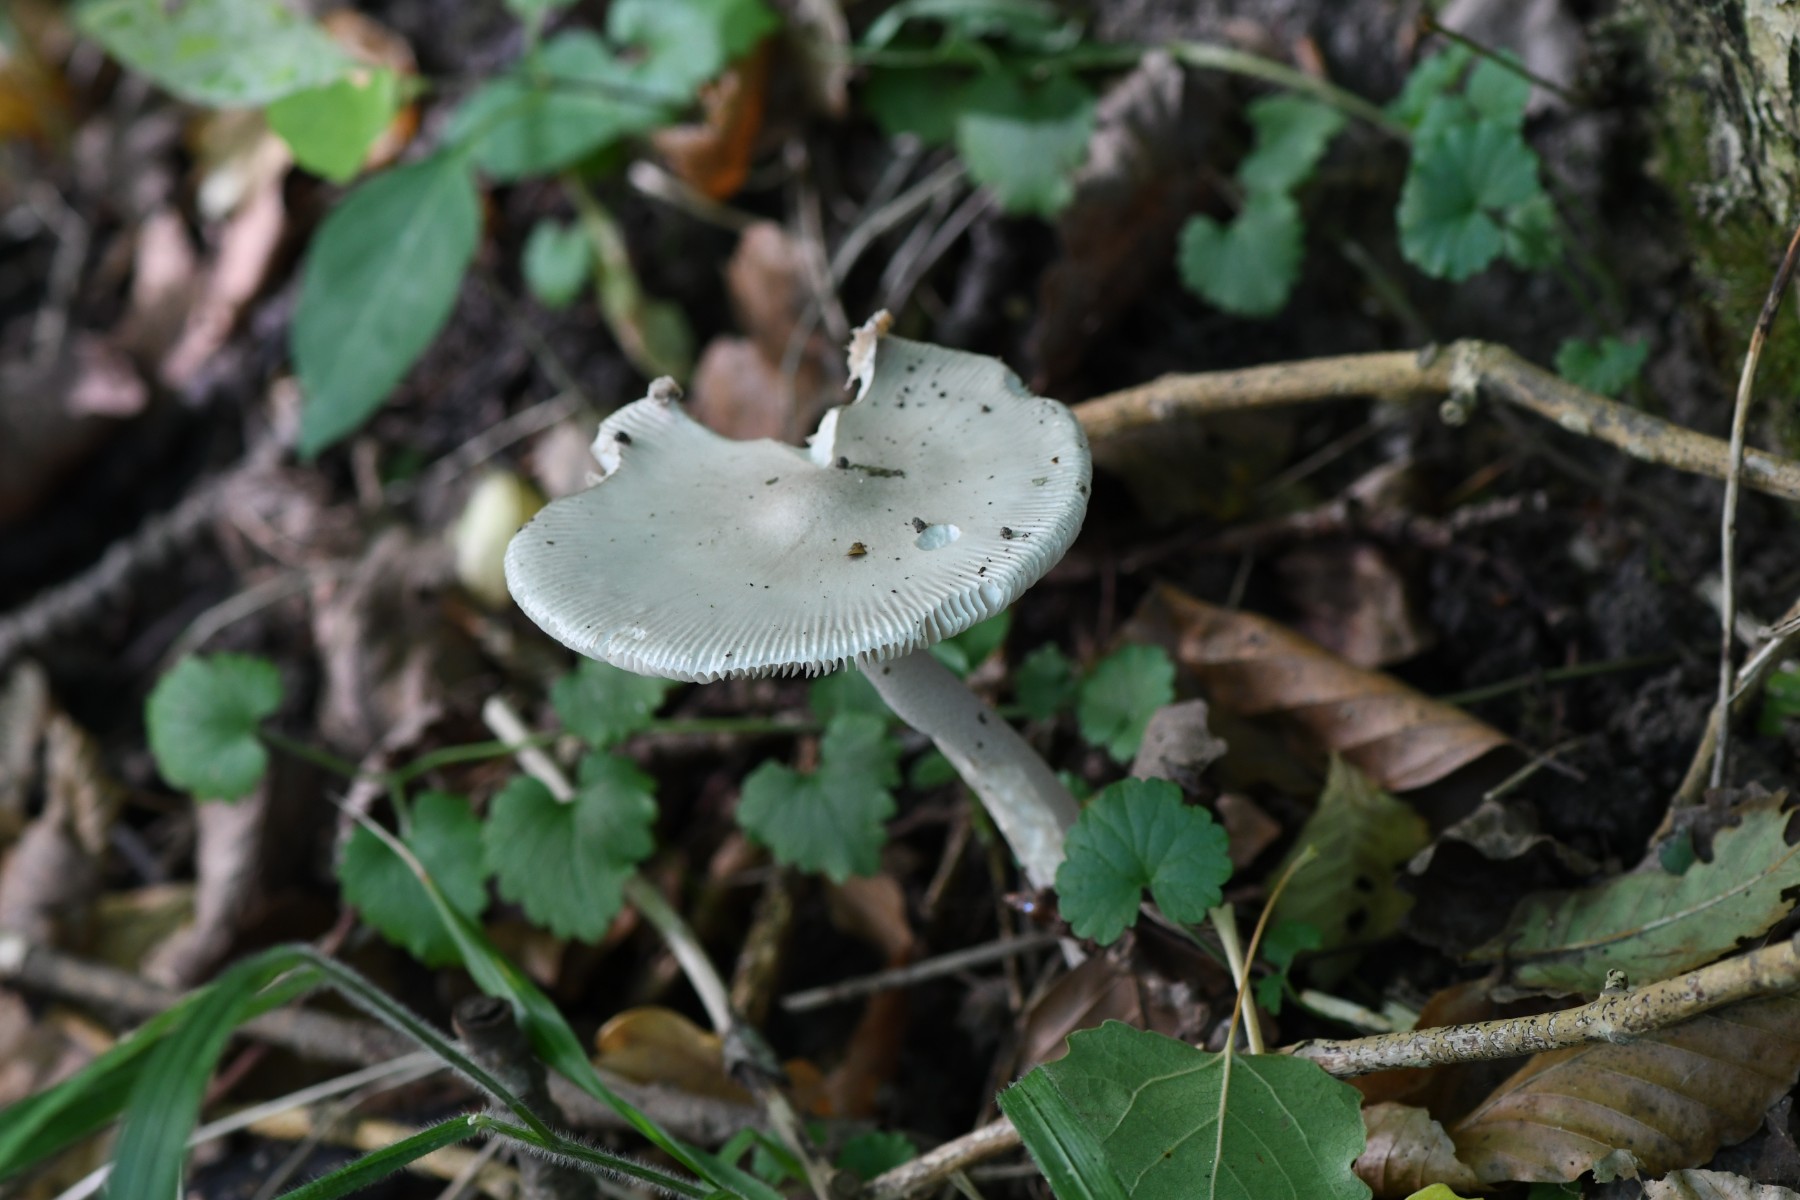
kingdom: Fungi
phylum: Basidiomycota
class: Agaricomycetes
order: Agaricales
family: Amanitaceae
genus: Amanita
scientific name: Amanita vaginata
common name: grå kam-fluesvamp
